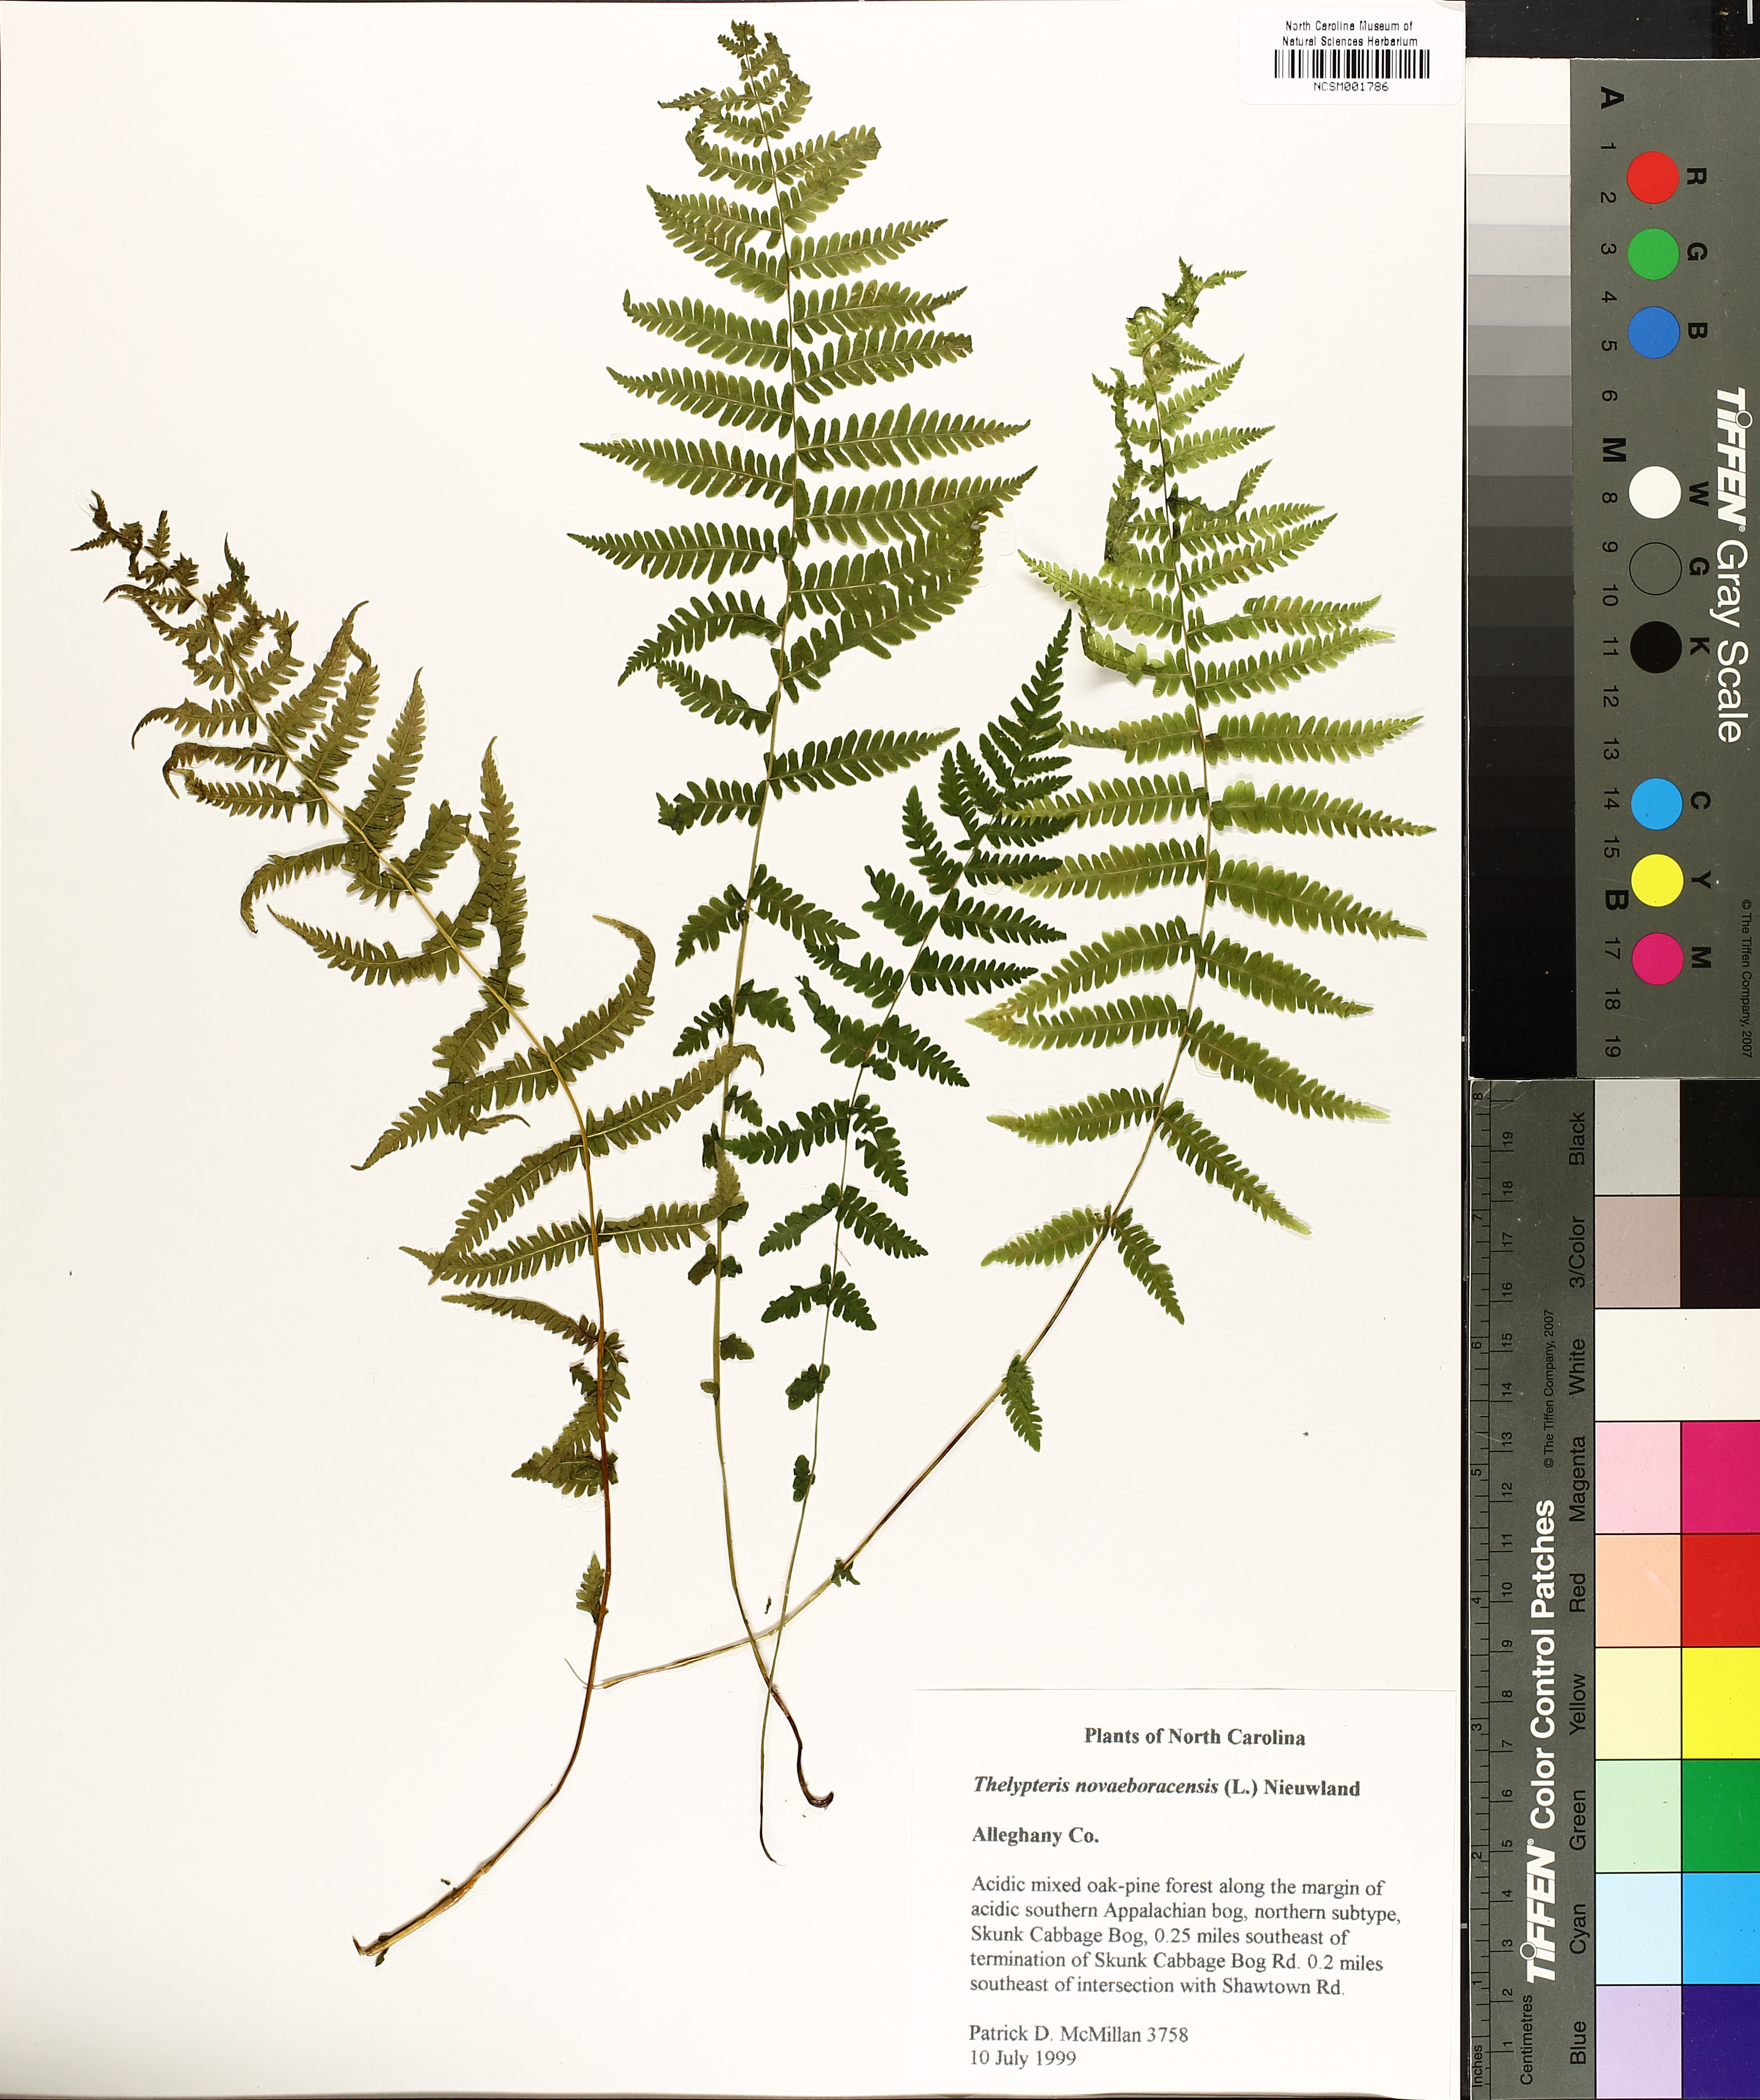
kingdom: Plantae
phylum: Tracheophyta
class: Polypodiopsida
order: Polypodiales
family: Thelypteridaceae
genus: Amauropelta
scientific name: Amauropelta noveboracensis
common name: New york fern
